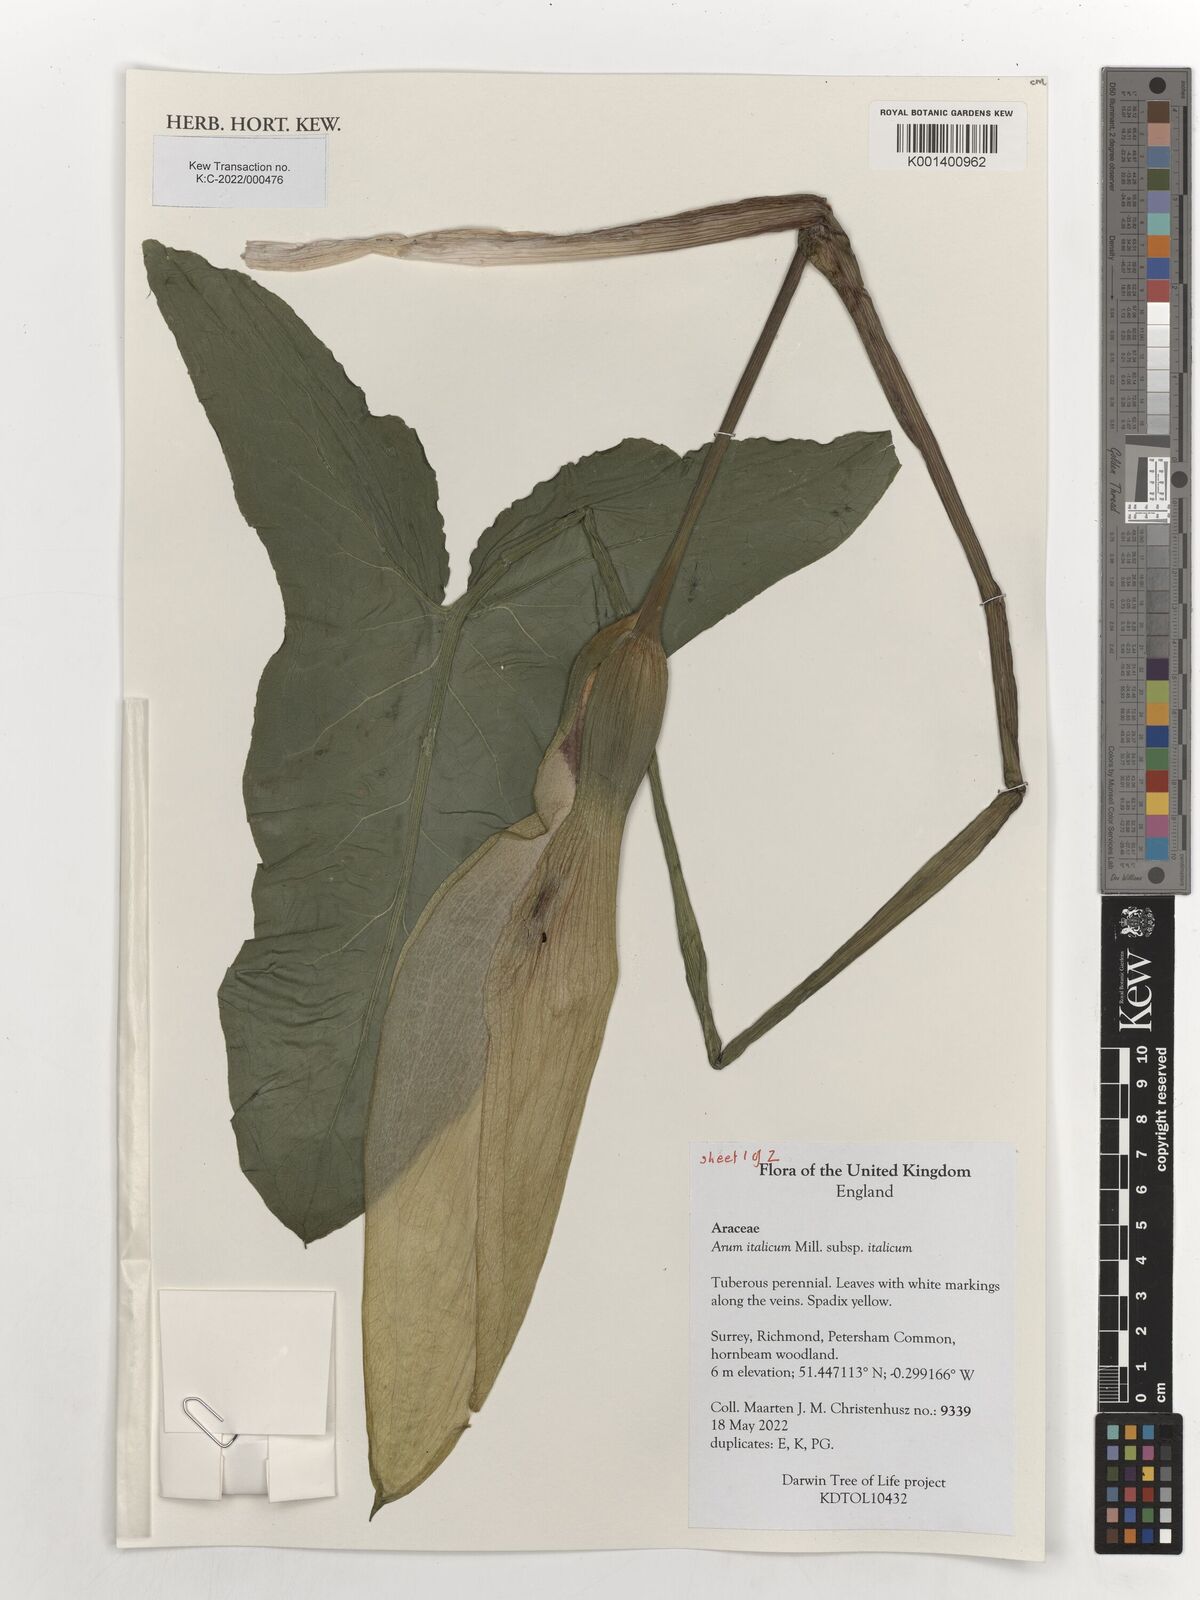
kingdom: Plantae
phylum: Tracheophyta
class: Liliopsida
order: Alismatales
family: Araceae
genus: Arum
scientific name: Arum italicum
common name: Italian lords-and-ladies
